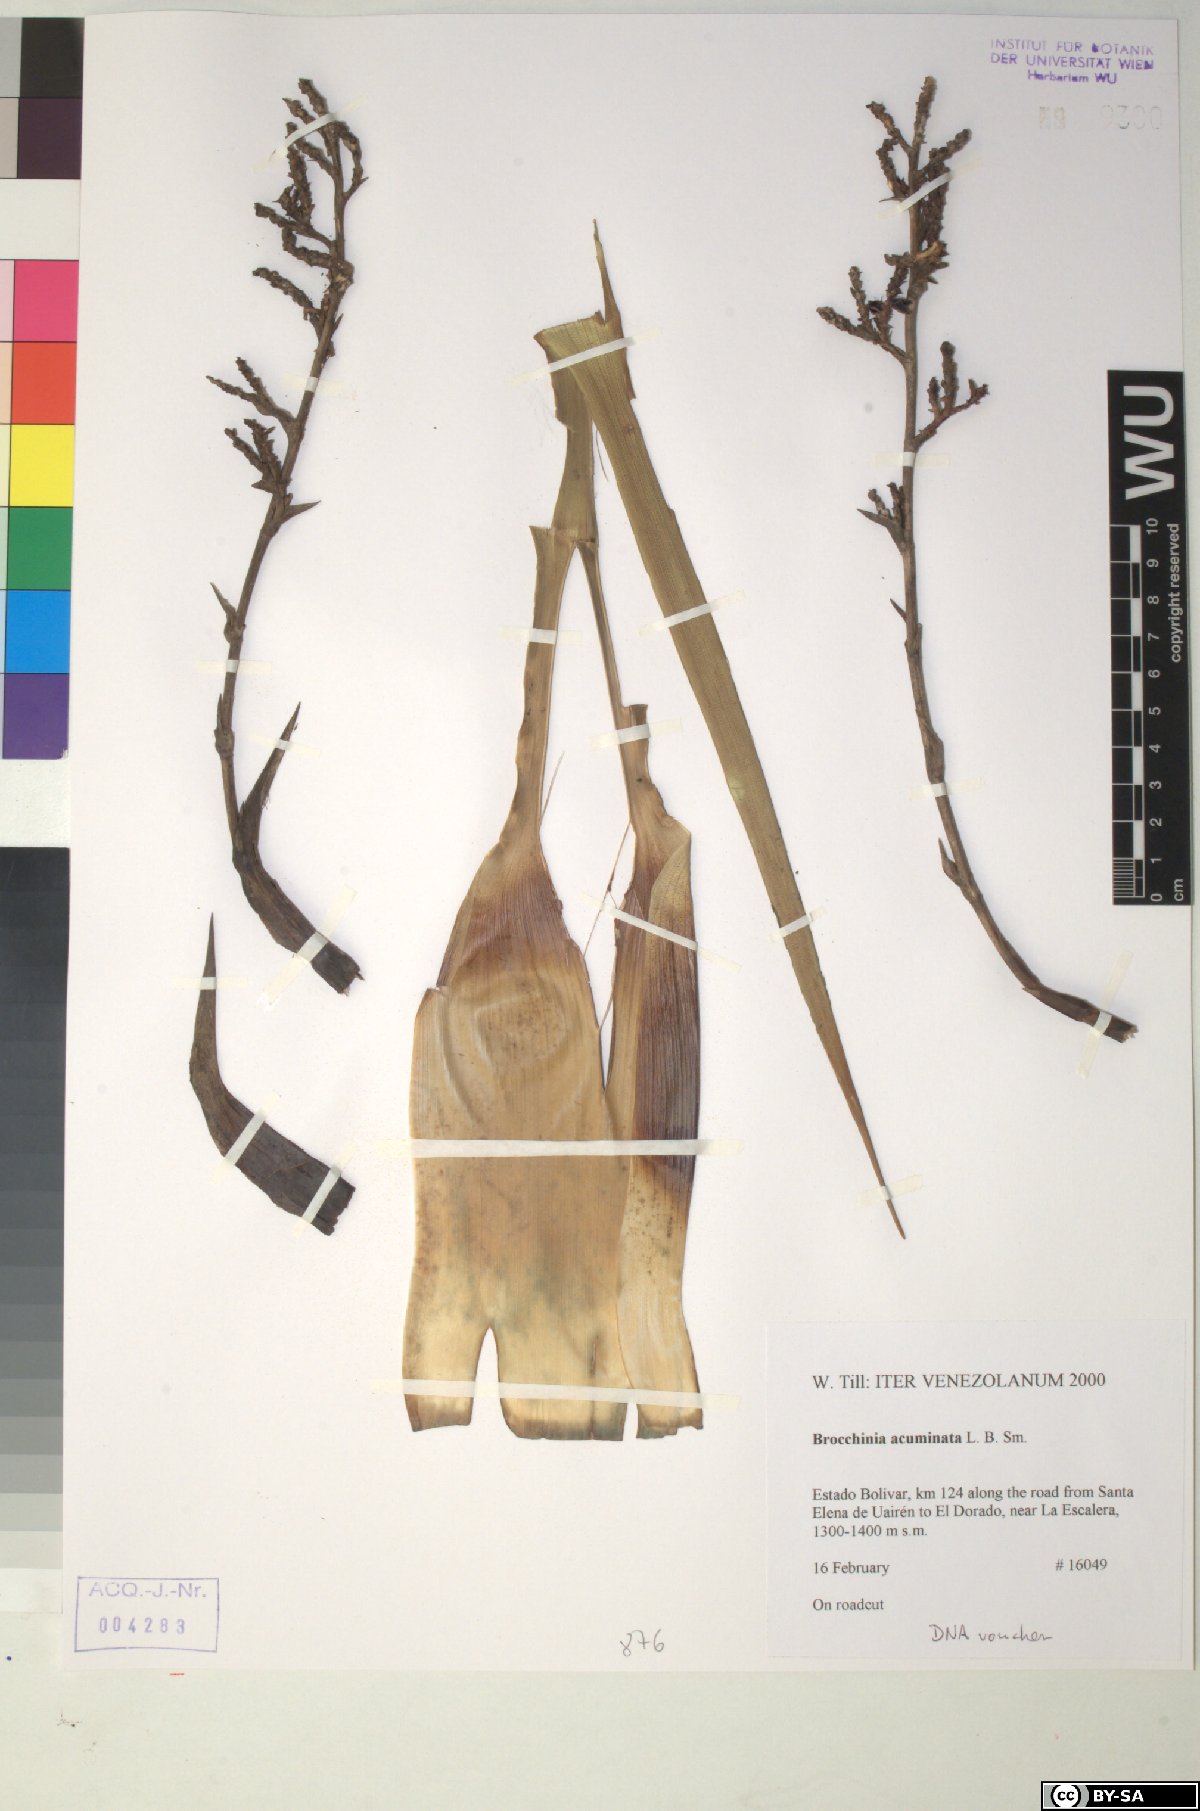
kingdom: Plantae
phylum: Tracheophyta
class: Liliopsida
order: Poales
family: Bromeliaceae
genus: Brocchinia
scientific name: Brocchinia acuminata
